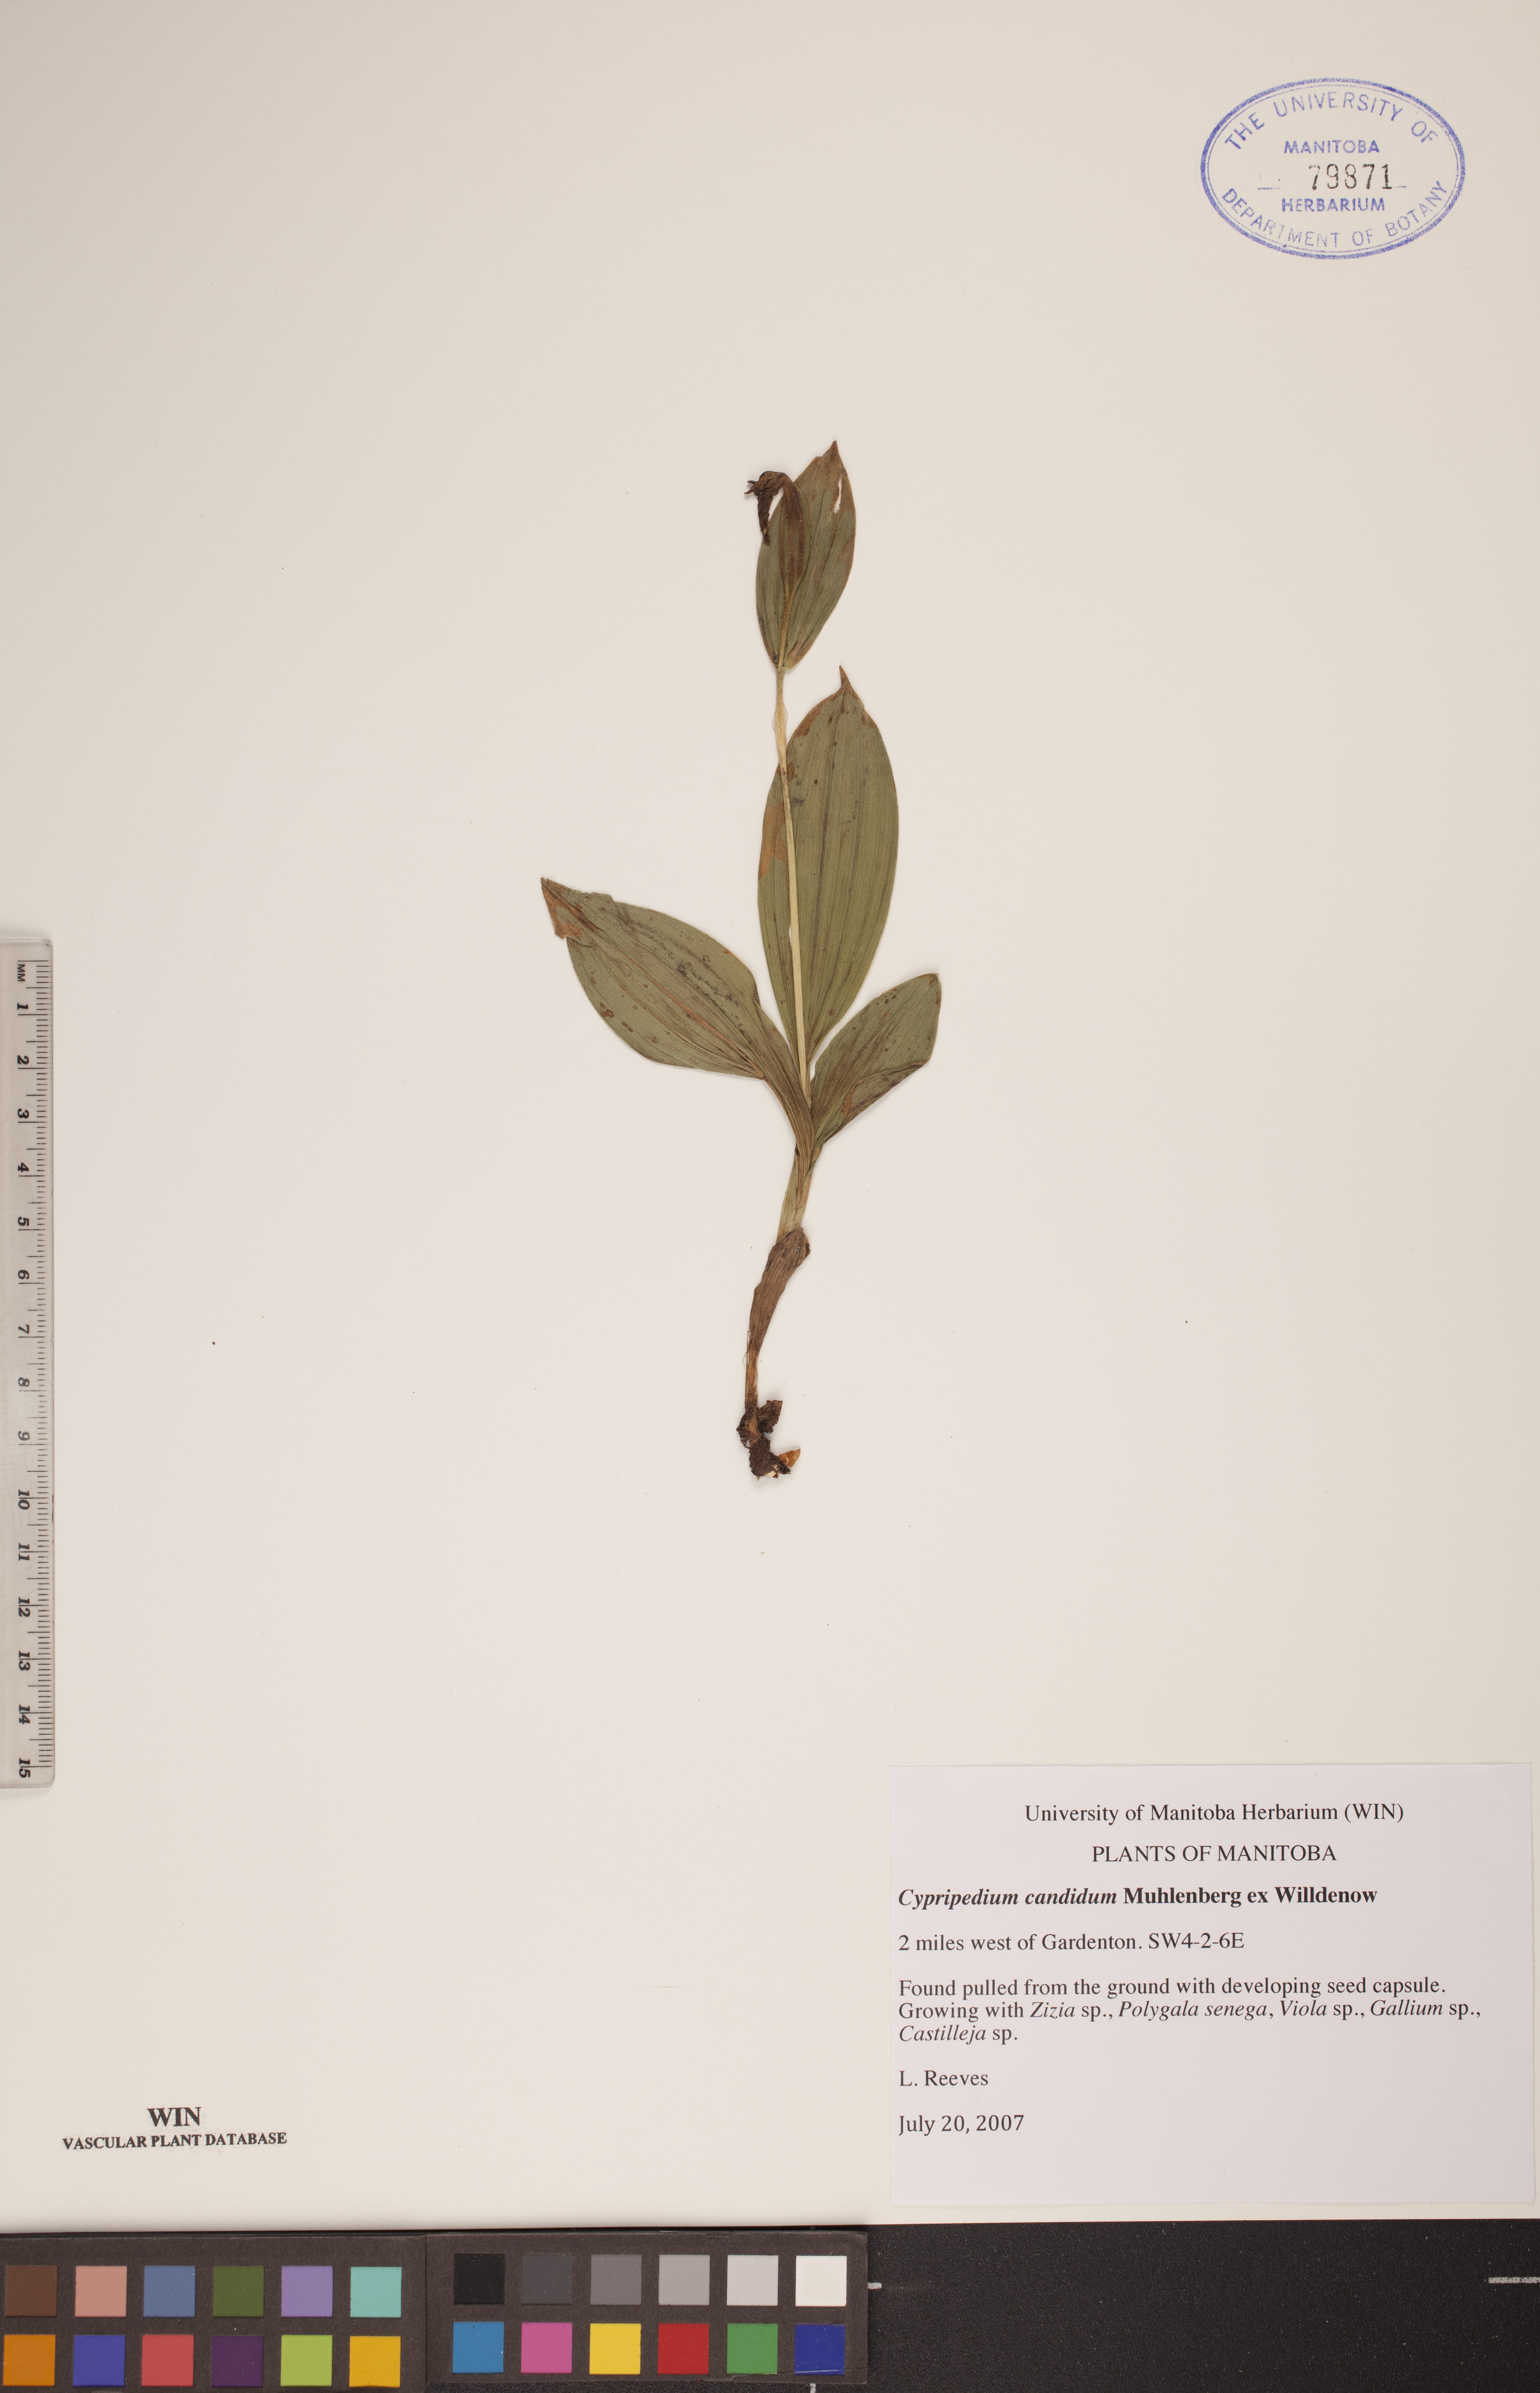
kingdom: Plantae
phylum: Tracheophyta
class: Liliopsida
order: Asparagales
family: Orchidaceae
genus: Cypripedium
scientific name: Cypripedium candidum
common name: White lady's-slipper
